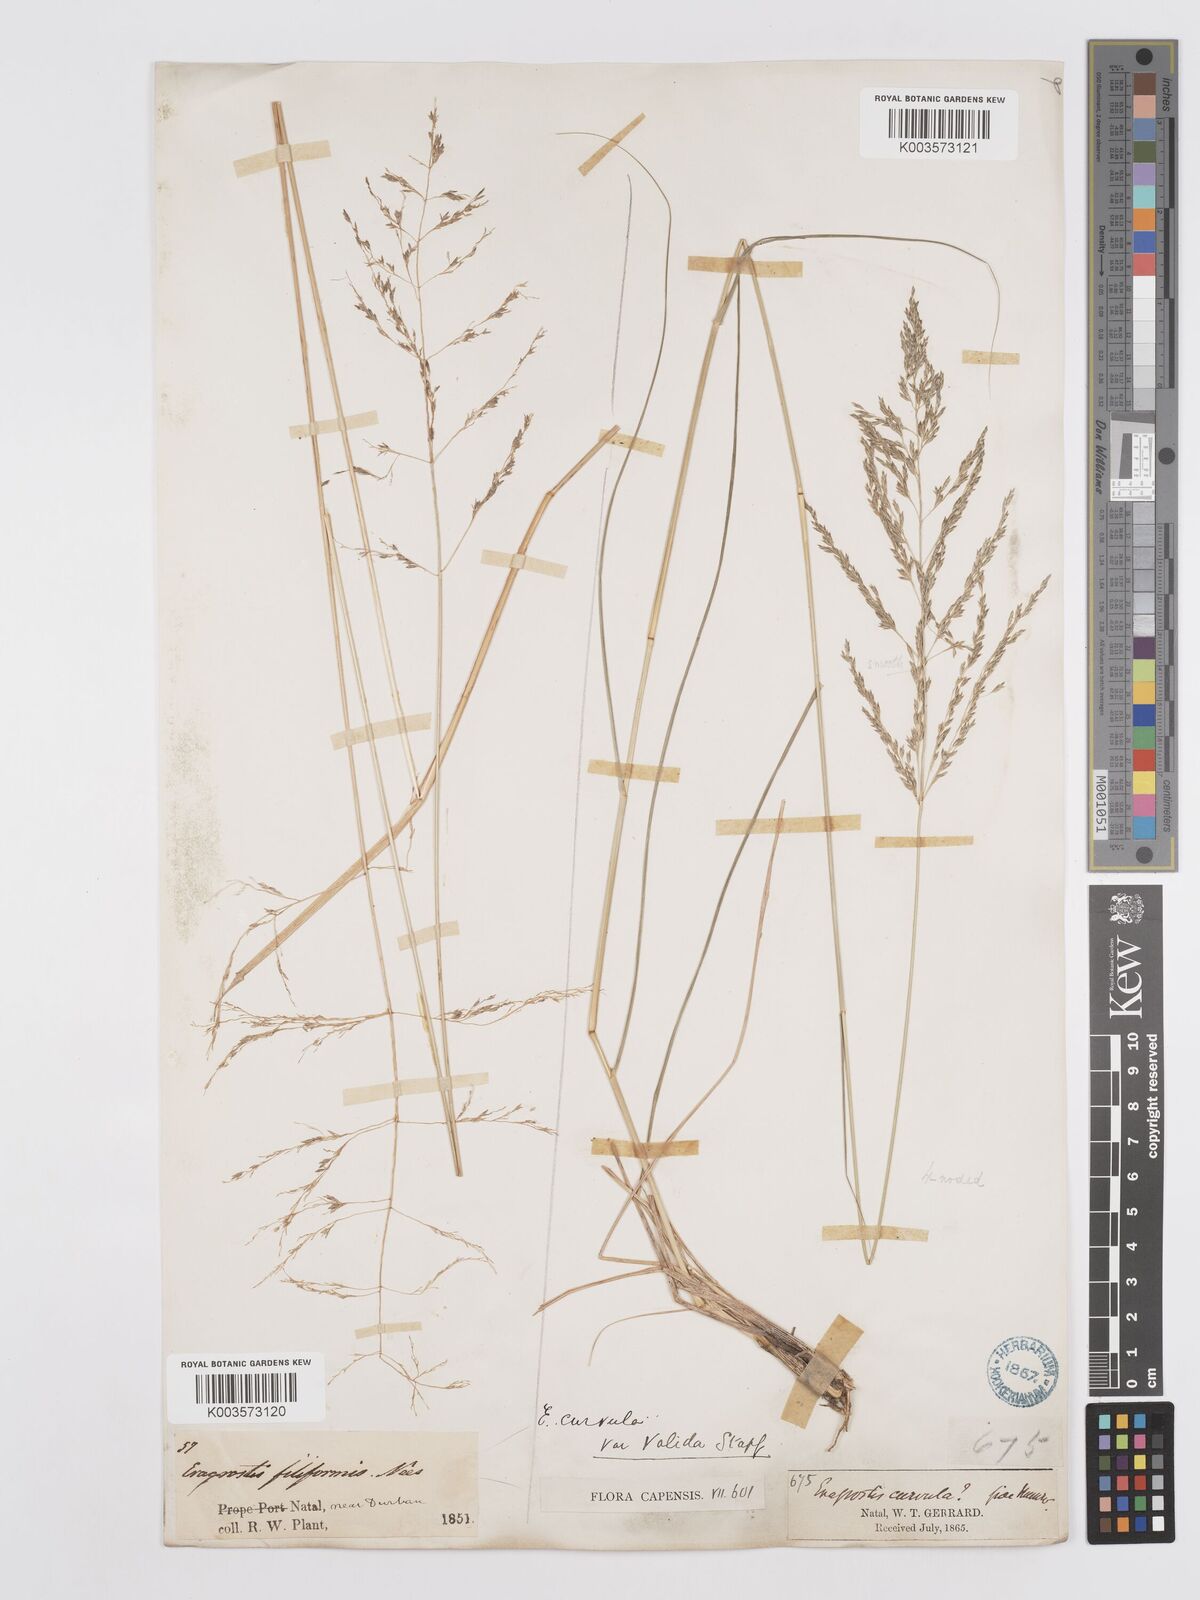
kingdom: Plantae
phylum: Tracheophyta
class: Liliopsida
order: Poales
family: Poaceae
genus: Eragrostis
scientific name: Eragrostis curvula
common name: African love-grass
